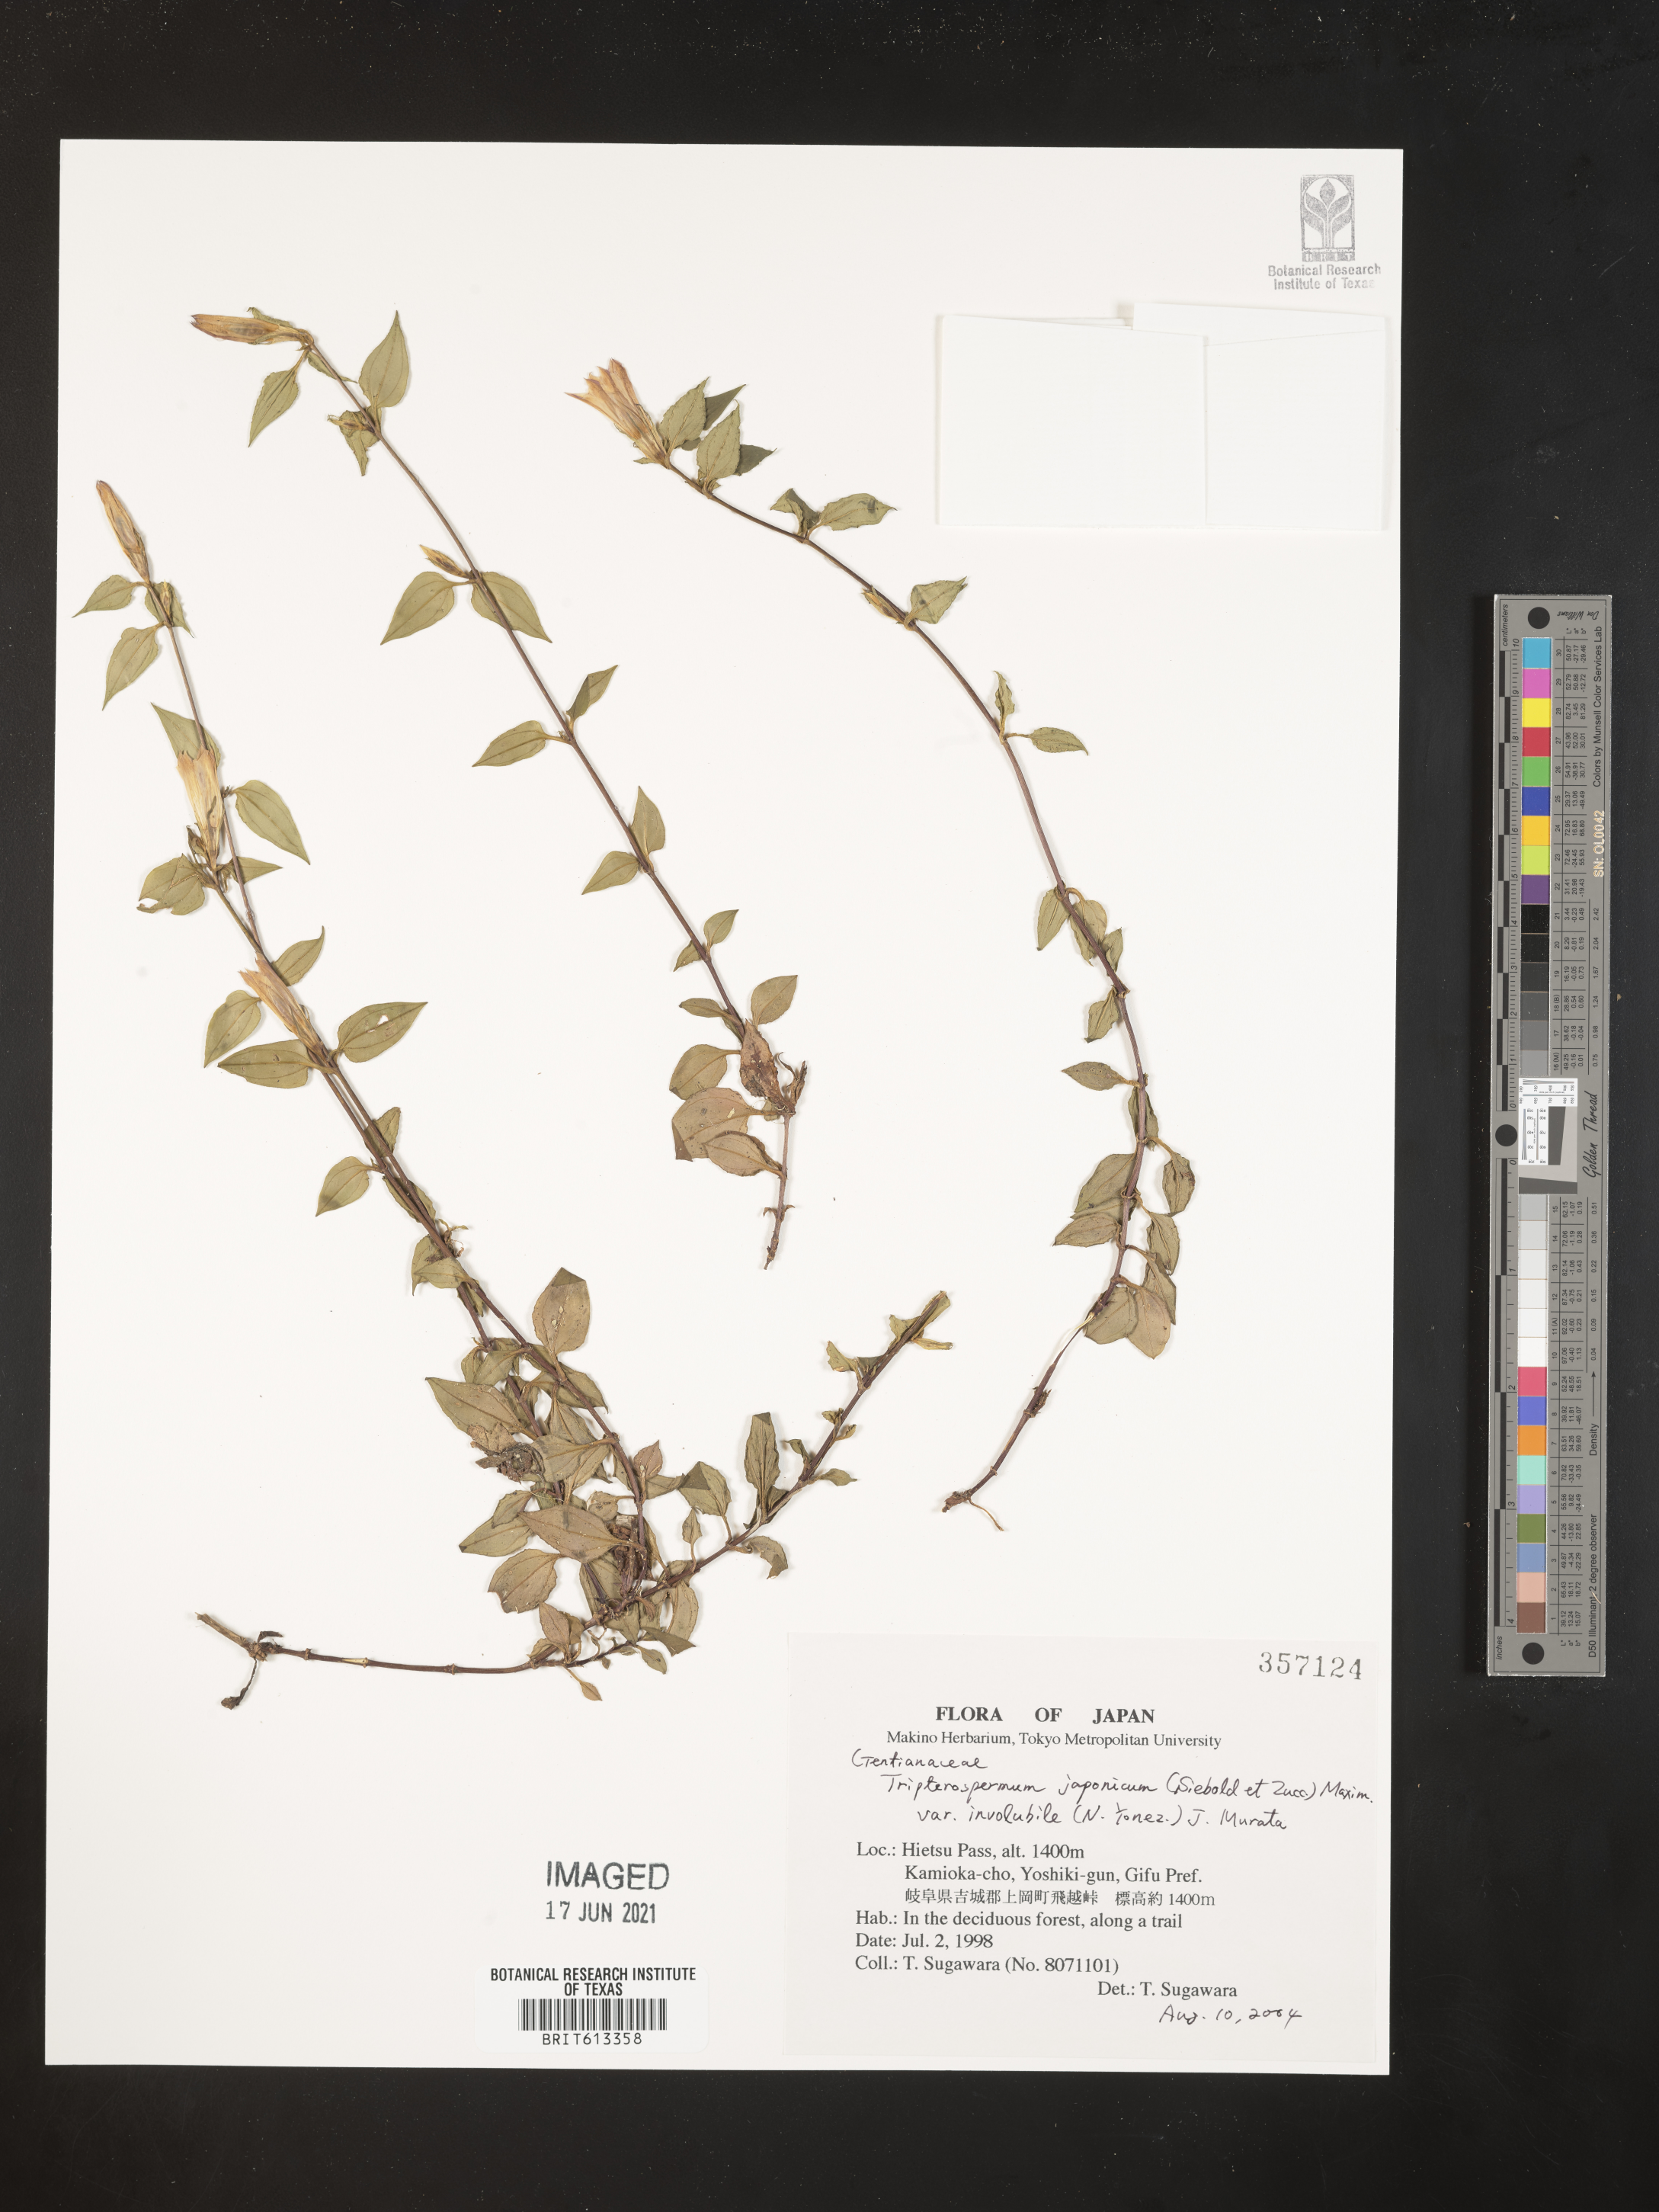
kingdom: Plantae
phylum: Tracheophyta
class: Magnoliopsida
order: Gentianales
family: Gentianaceae
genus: Tripterospermum
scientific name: Tripterospermum trinervium
